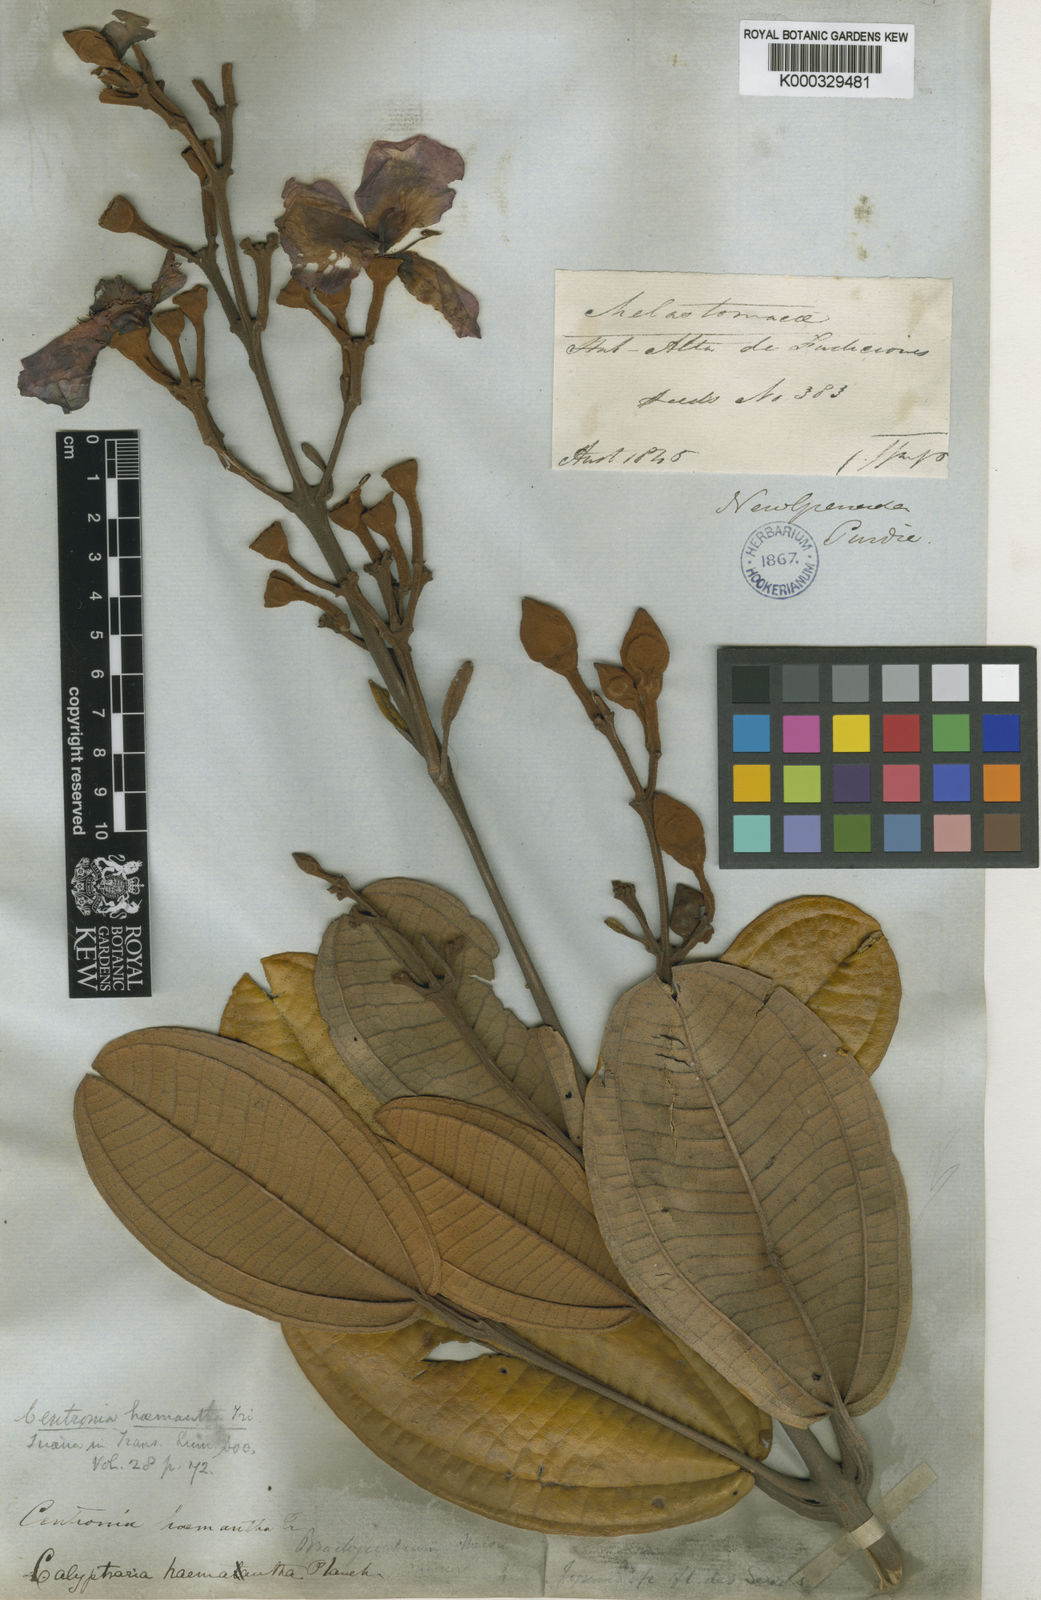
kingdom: Plantae
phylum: Tracheophyta
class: Magnoliopsida
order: Myrtales
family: Melastomataceae
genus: Meriania
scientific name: Meriania haemantha
